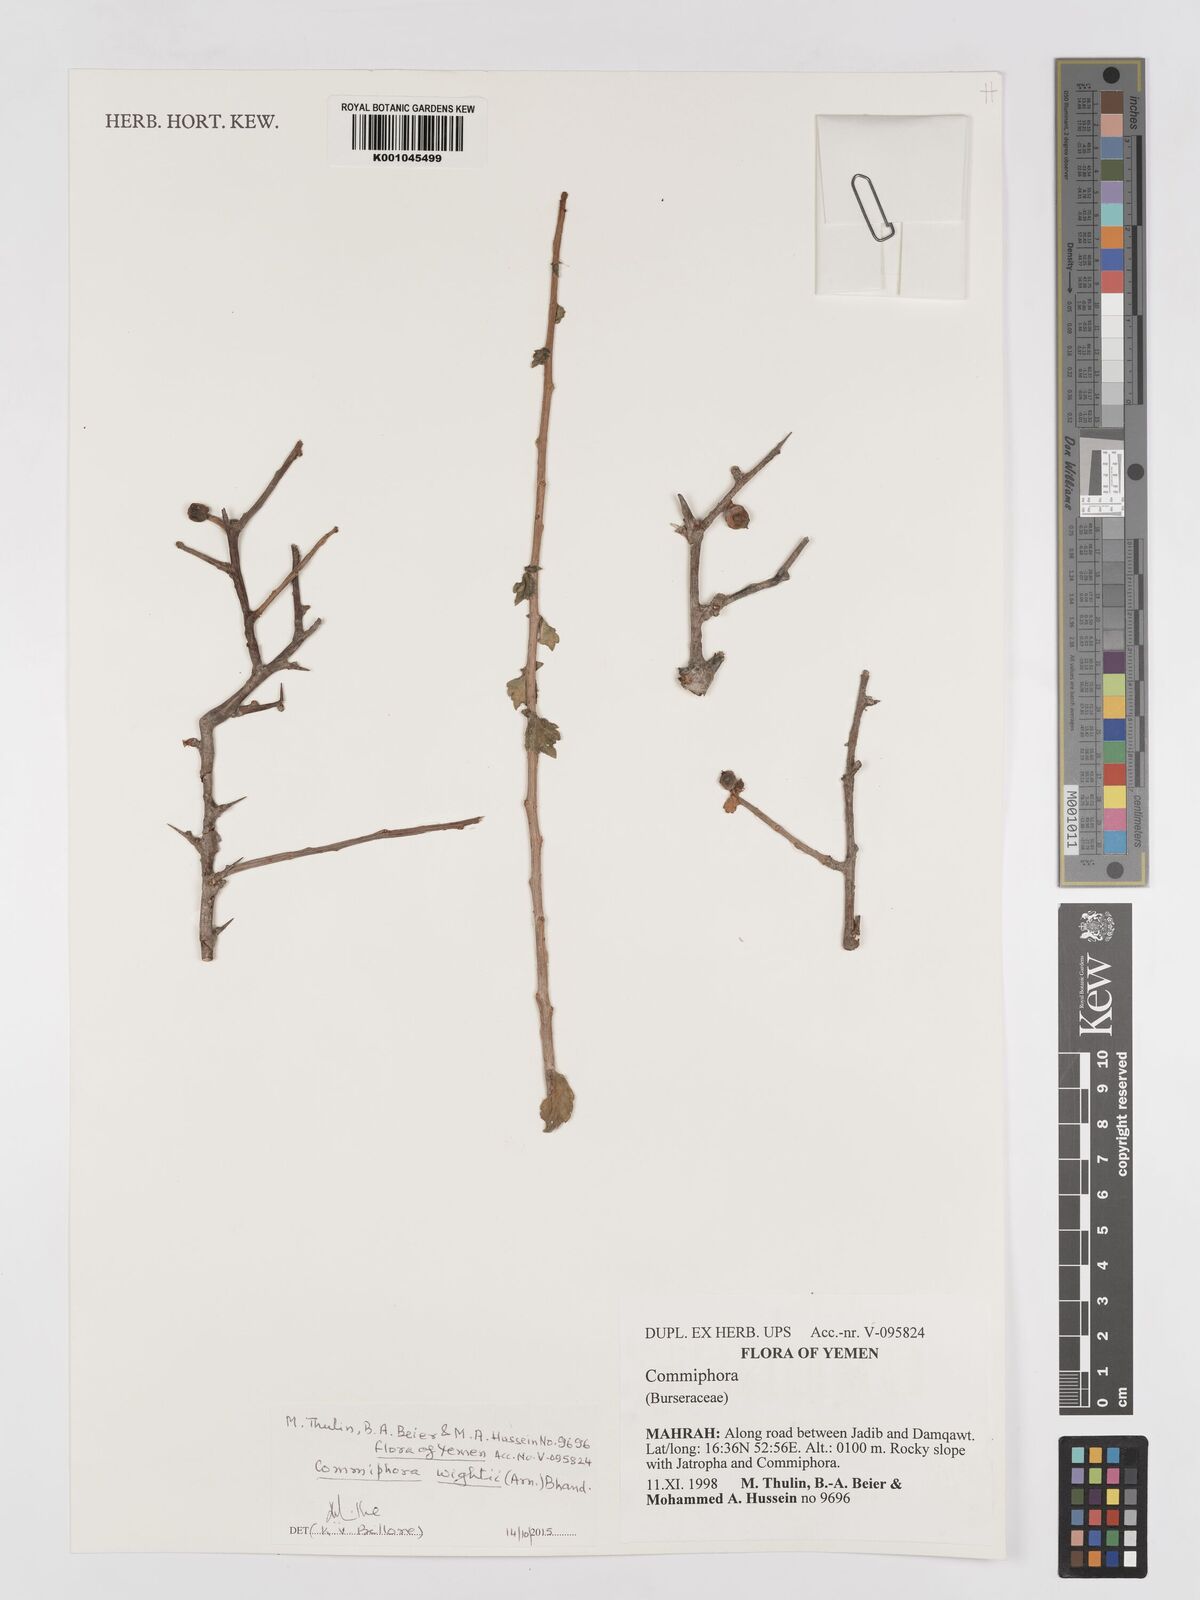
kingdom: Plantae
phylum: Tracheophyta
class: Magnoliopsida
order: Sapindales
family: Burseraceae
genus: Commiphora
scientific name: Commiphora wightii
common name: Indian bdellium-tree
